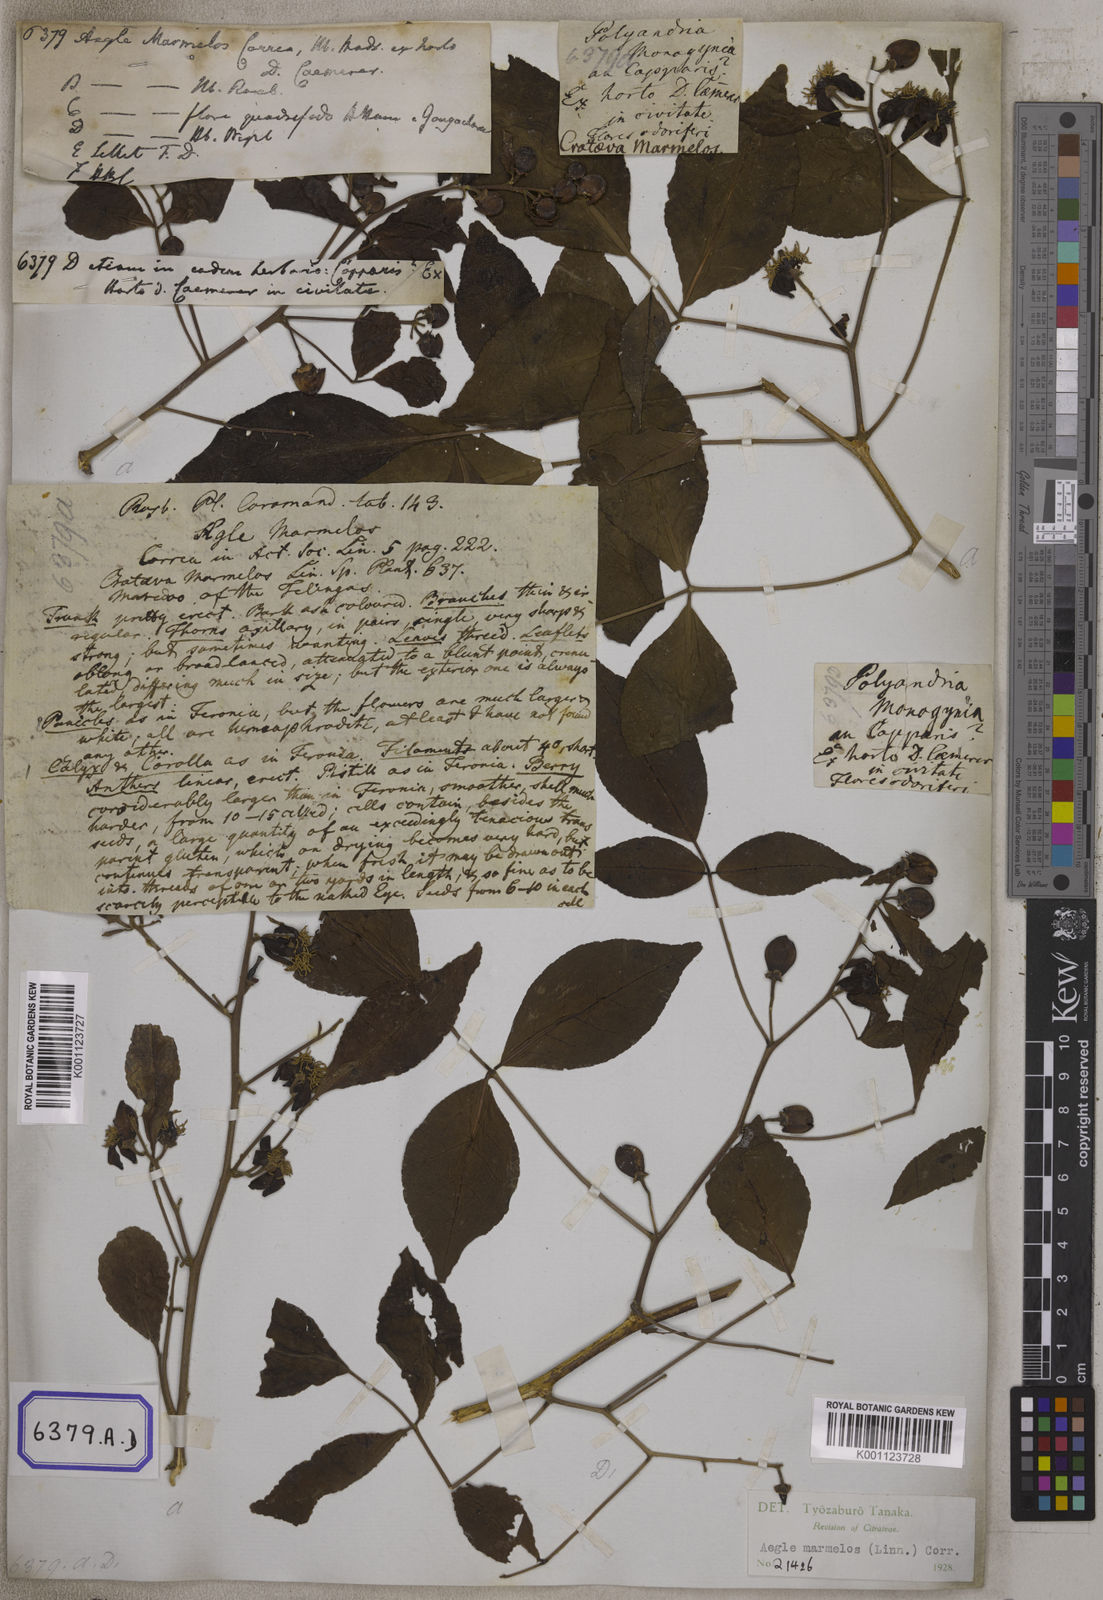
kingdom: Plantae
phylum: Tracheophyta
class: Magnoliopsida
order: Sapindales
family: Rutaceae
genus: Aegle
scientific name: Aegle marmelos
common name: Bael
